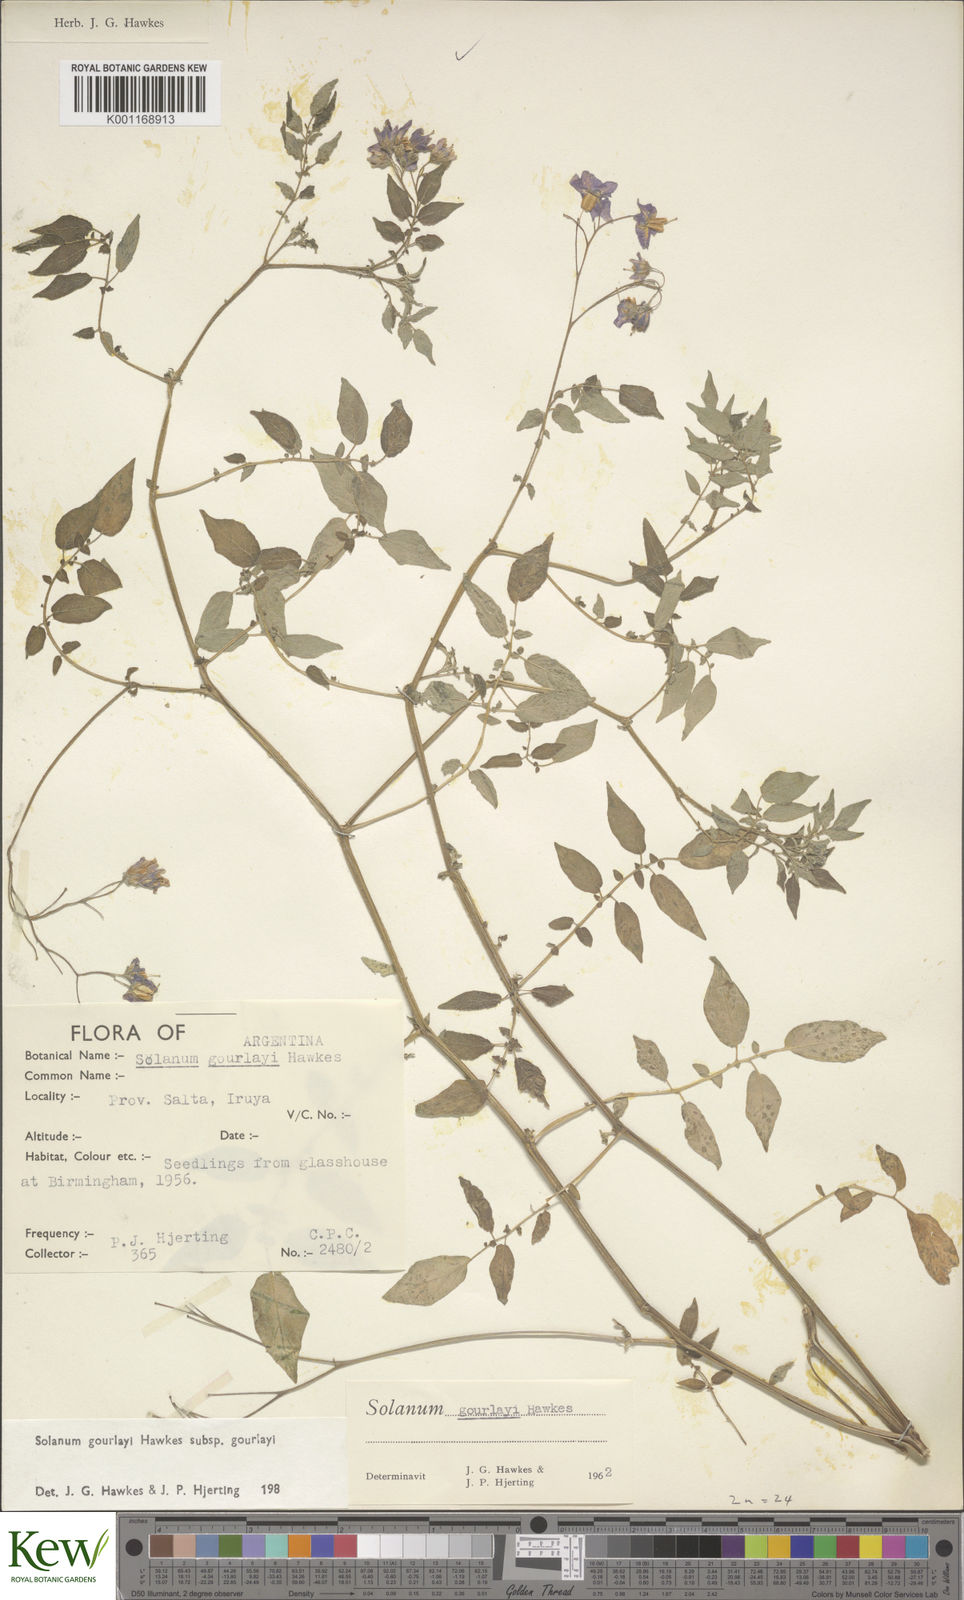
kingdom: Plantae
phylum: Tracheophyta
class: Magnoliopsida
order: Solanales
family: Solanaceae
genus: Solanum
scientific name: Solanum brevicaule
